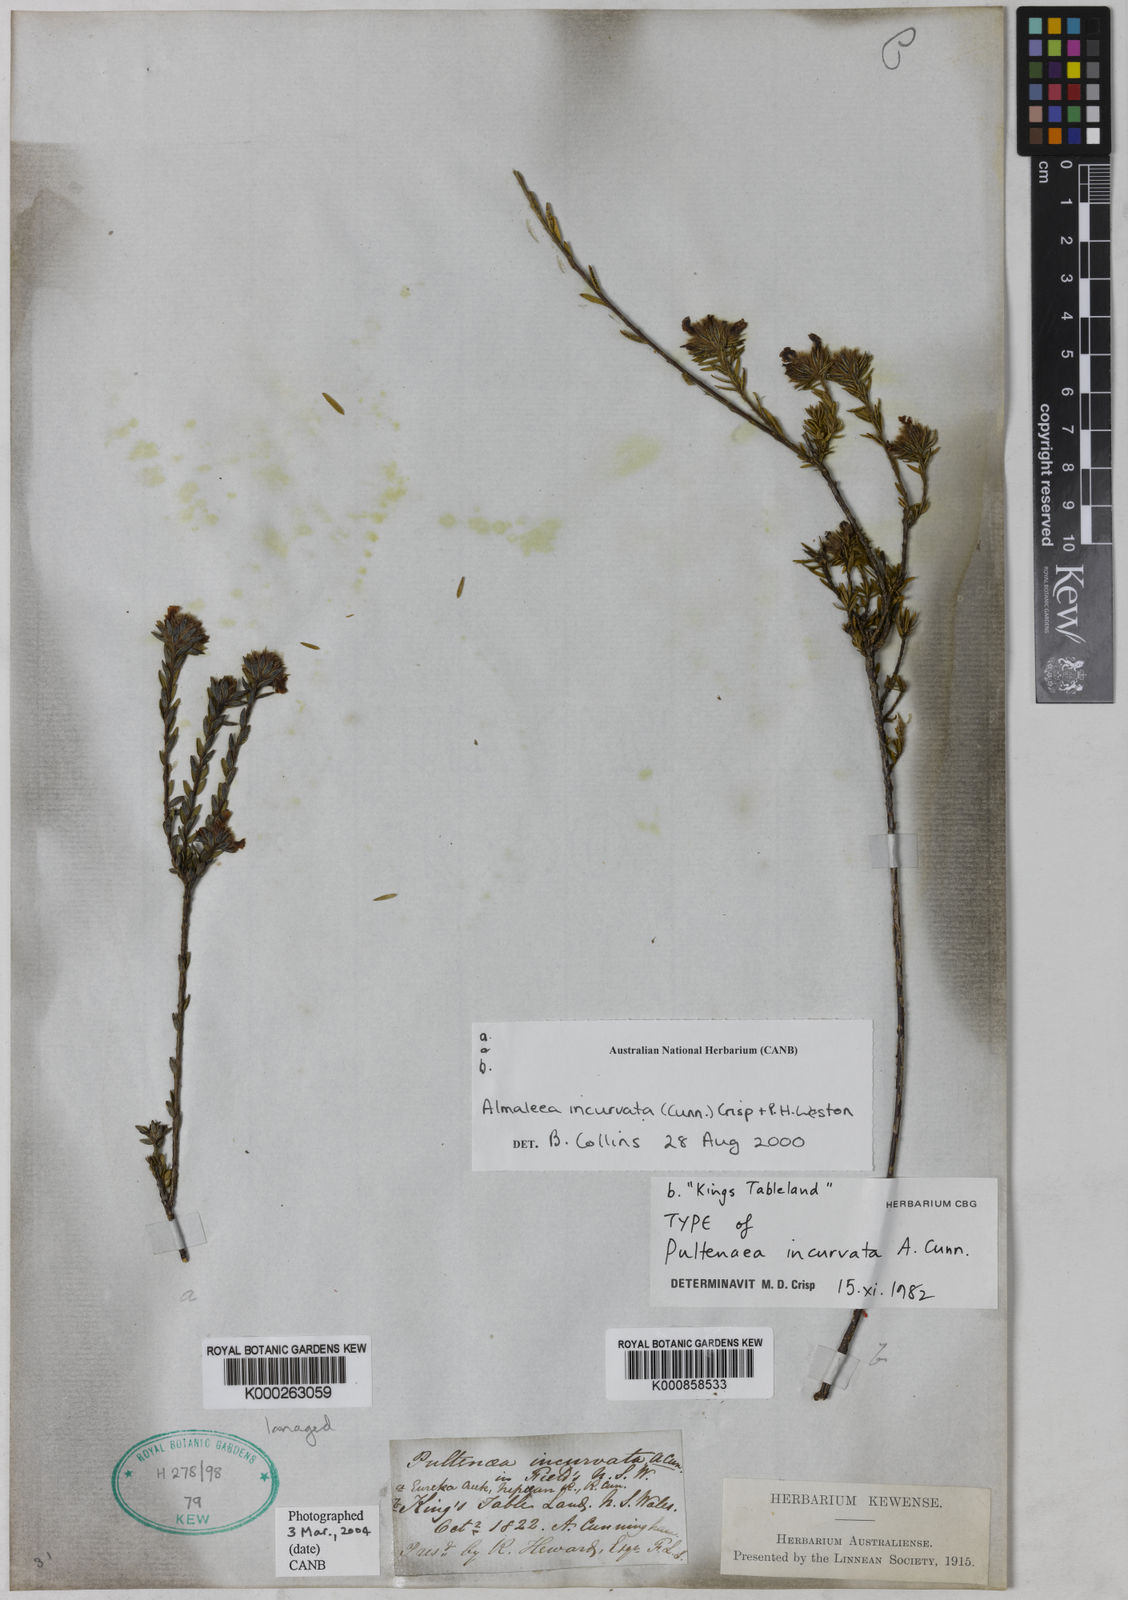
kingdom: Plantae
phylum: Tracheophyta
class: Magnoliopsida
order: Fabales
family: Fabaceae
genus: Almaleea
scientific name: Almaleea incurvata
